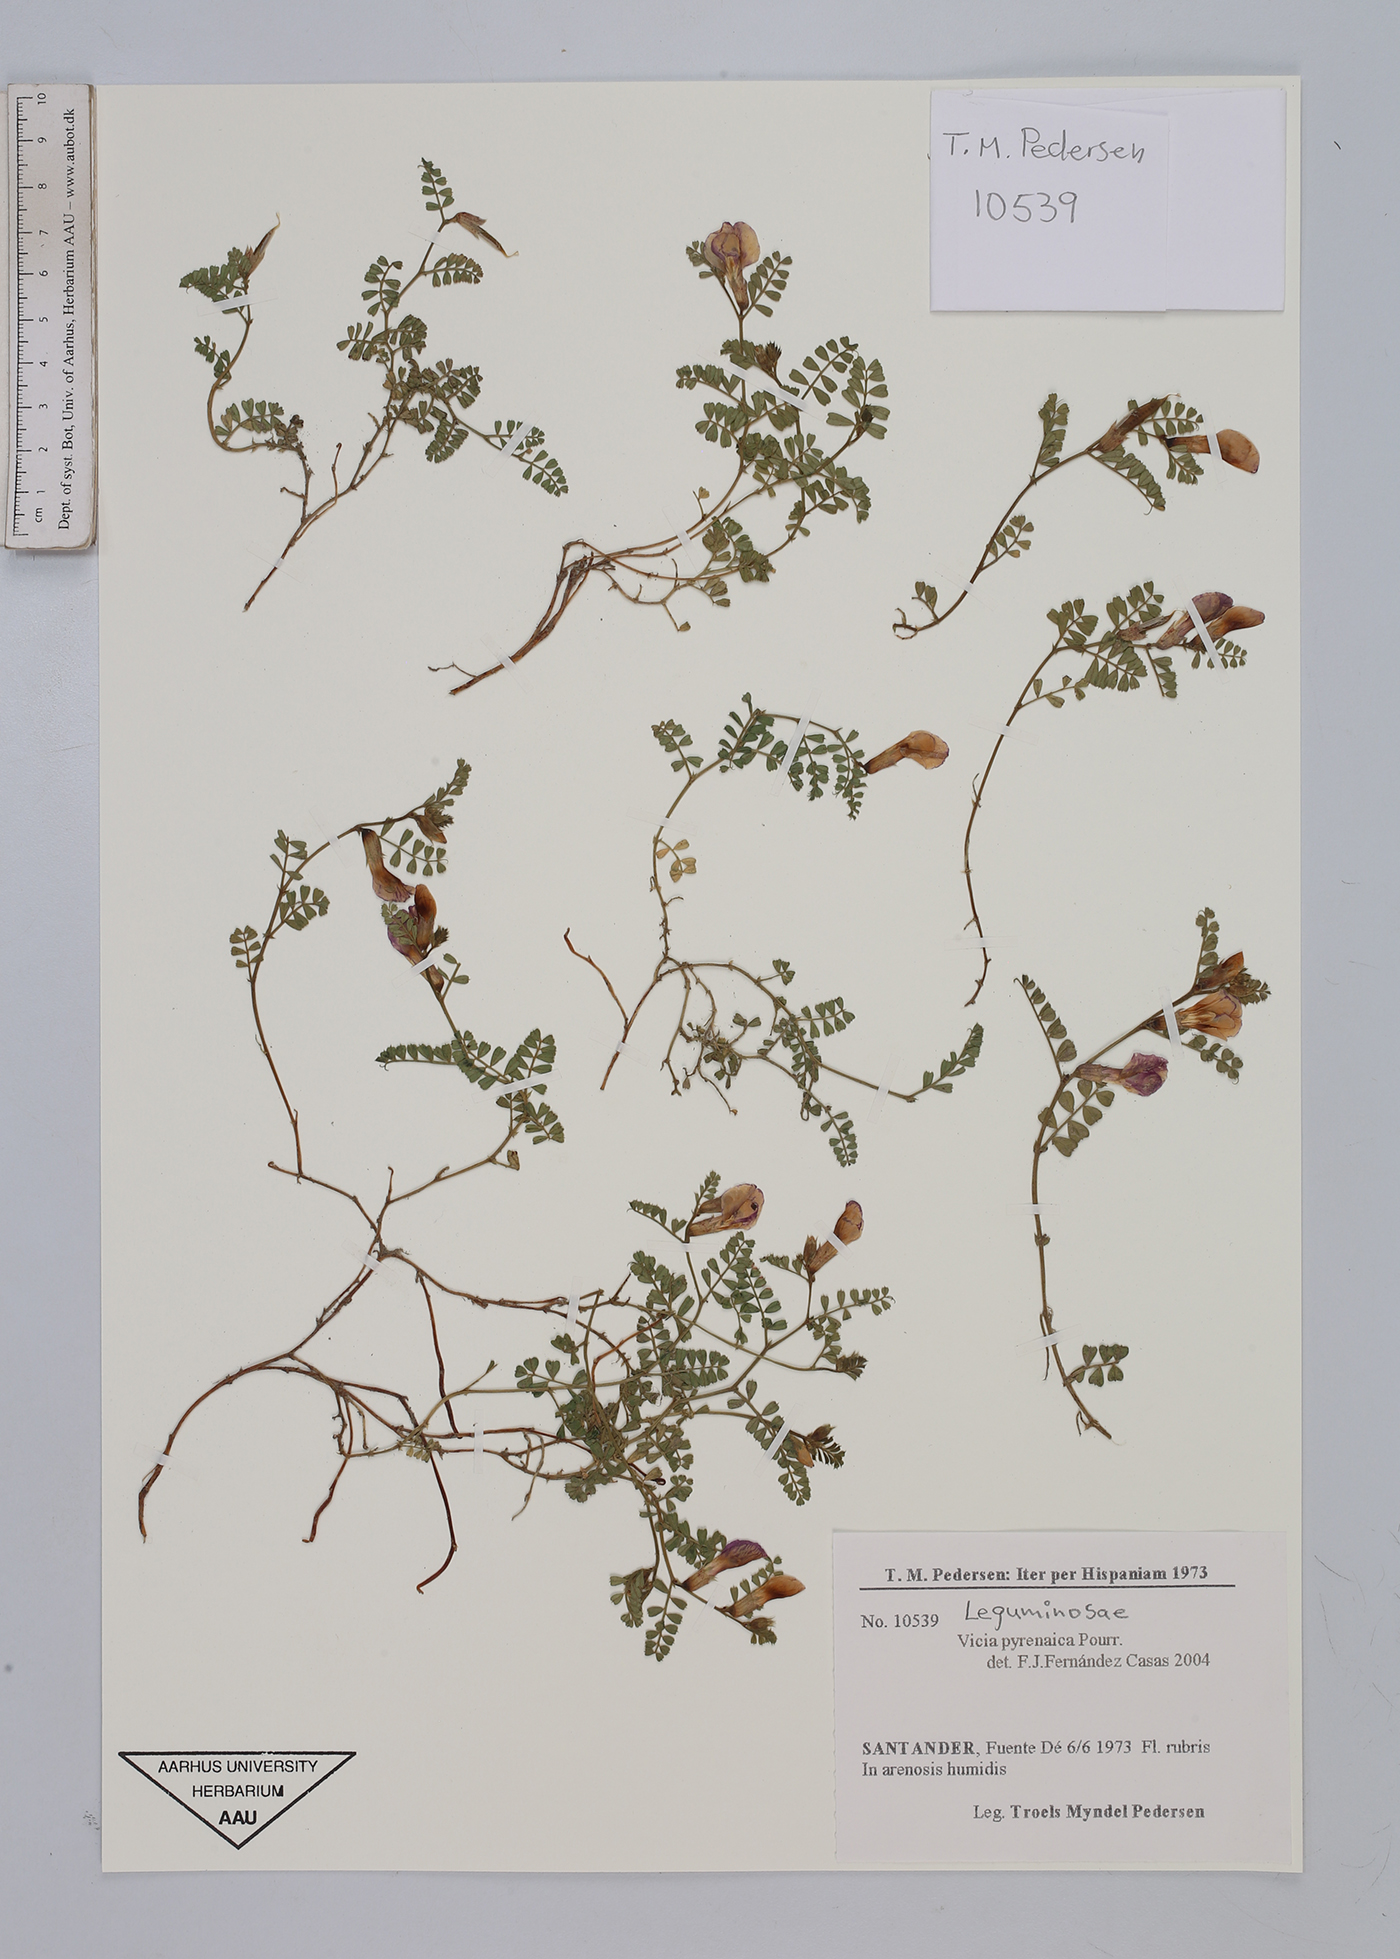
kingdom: Plantae
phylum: Tracheophyta
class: Magnoliopsida
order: Fabales
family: Fabaceae
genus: Vicia
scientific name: Vicia pyrenaica
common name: Pyrenean vetch
